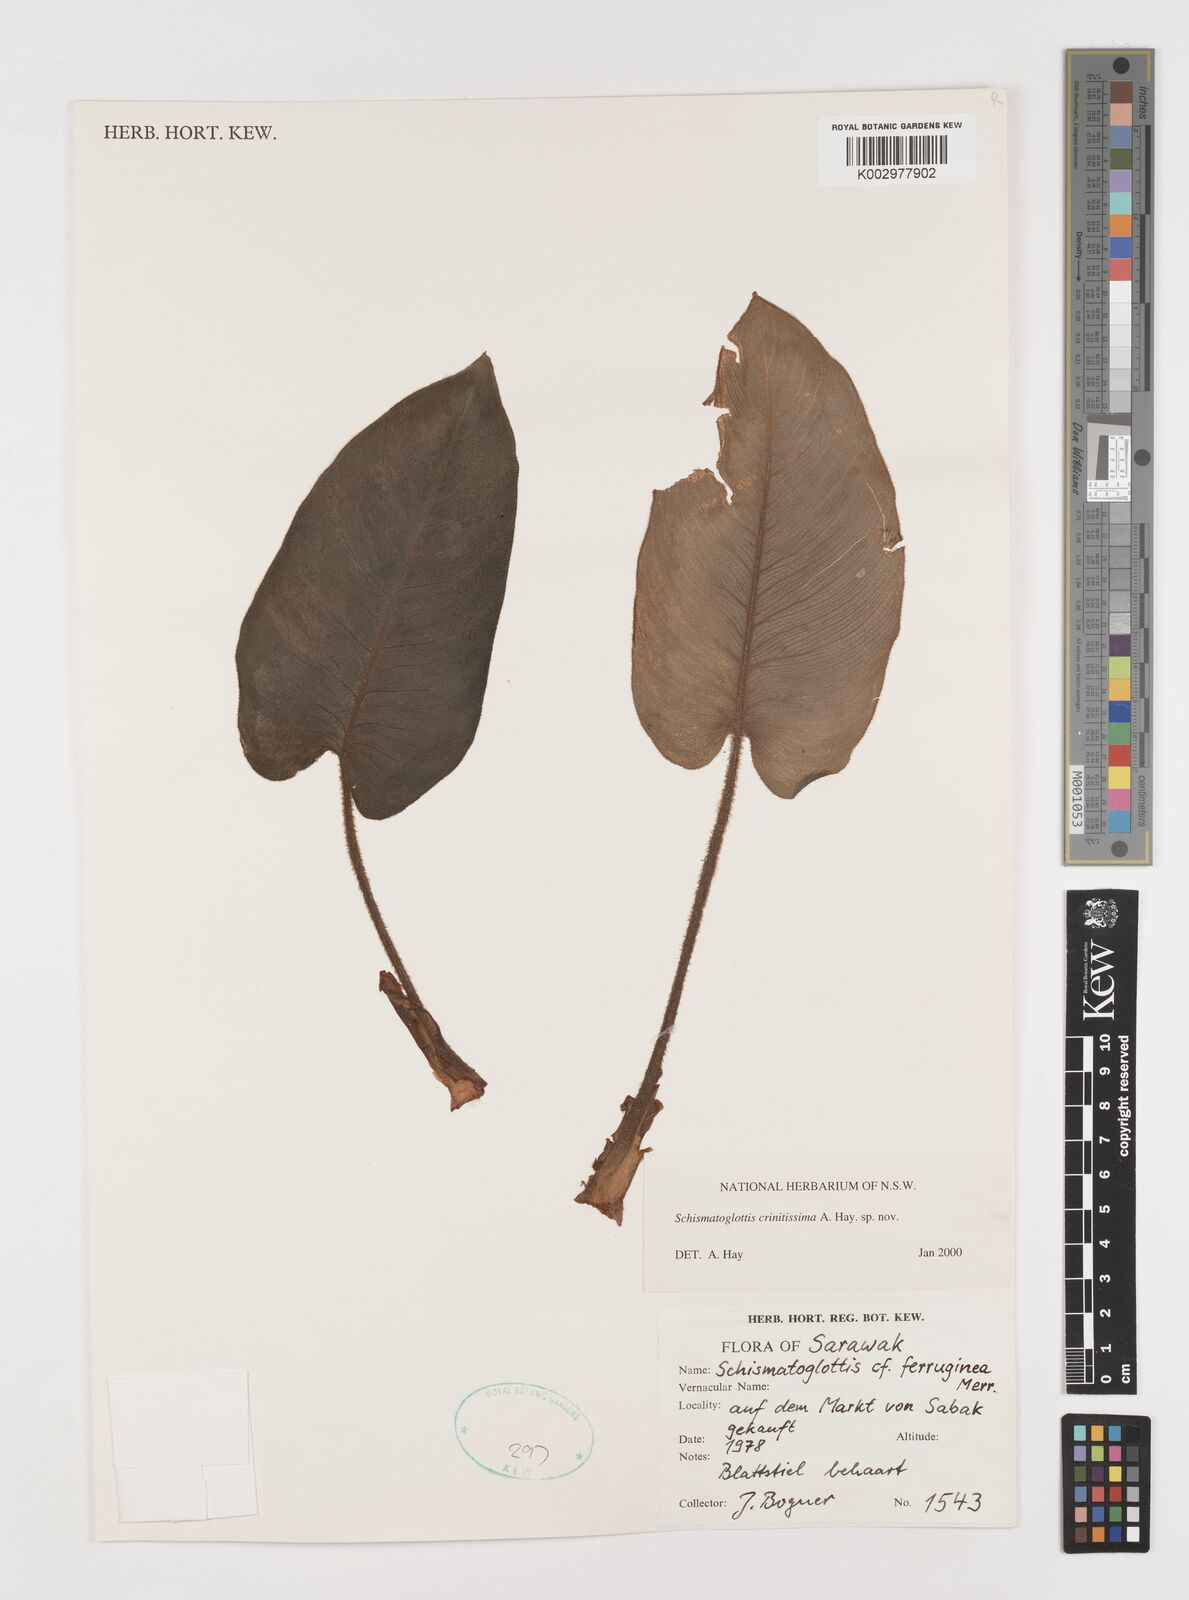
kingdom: Plantae
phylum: Tracheophyta
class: Liliopsida
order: Alismatales
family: Araceae
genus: Schismatoglottis
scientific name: Schismatoglottis crinitissima
